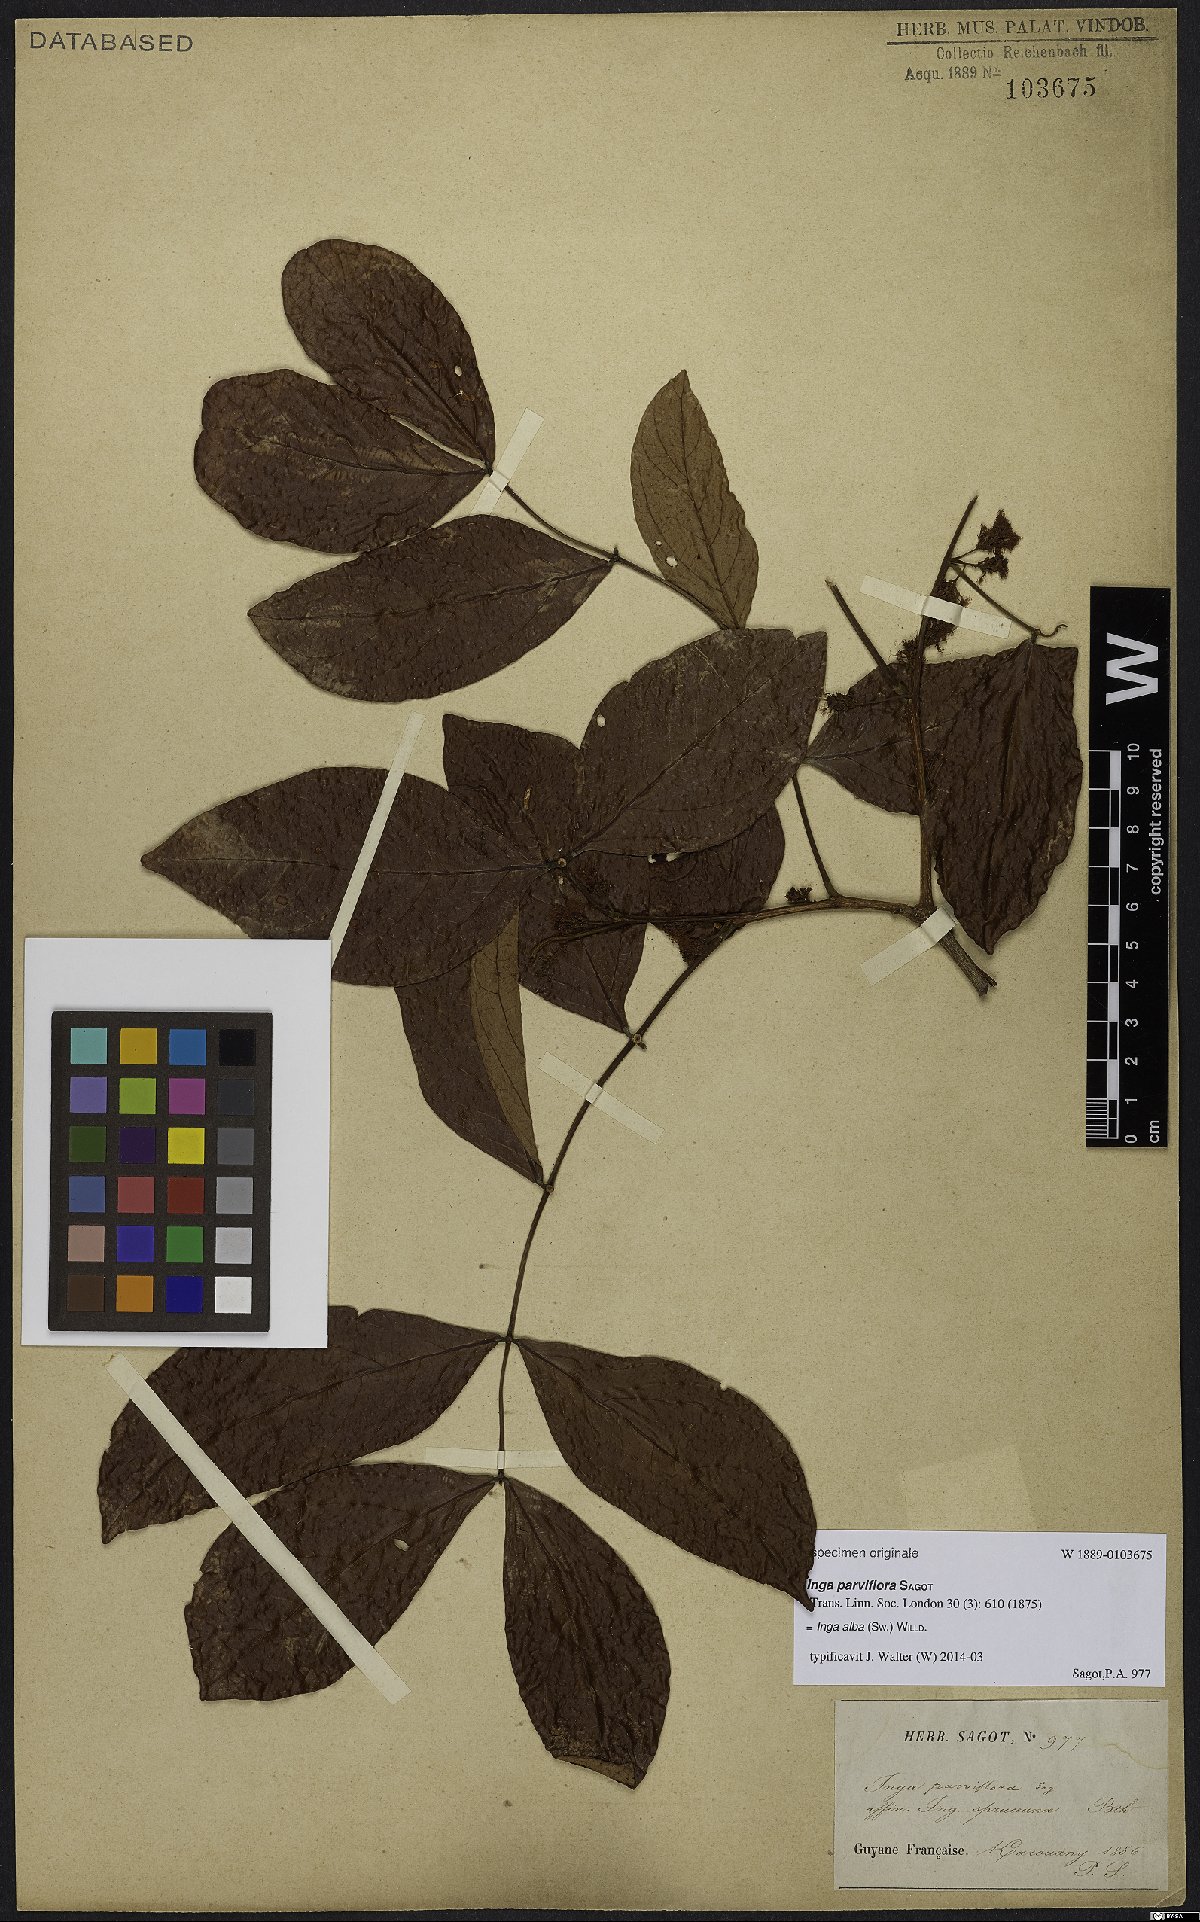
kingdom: Plantae
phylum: Tracheophyta
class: Magnoliopsida
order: Fabales
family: Fabaceae
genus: Inga
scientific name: Inga alba
